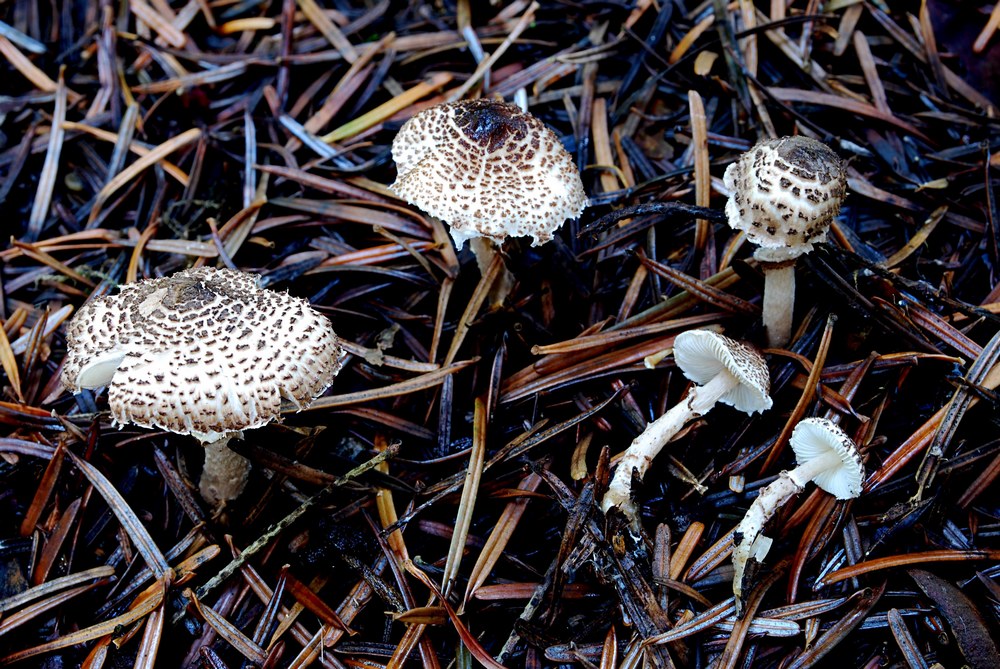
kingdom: Fungi
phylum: Basidiomycota
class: Agaricomycetes
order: Agaricales
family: Agaricaceae
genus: Lepiota
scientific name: Lepiota felina
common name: sortskællet parasolhat
